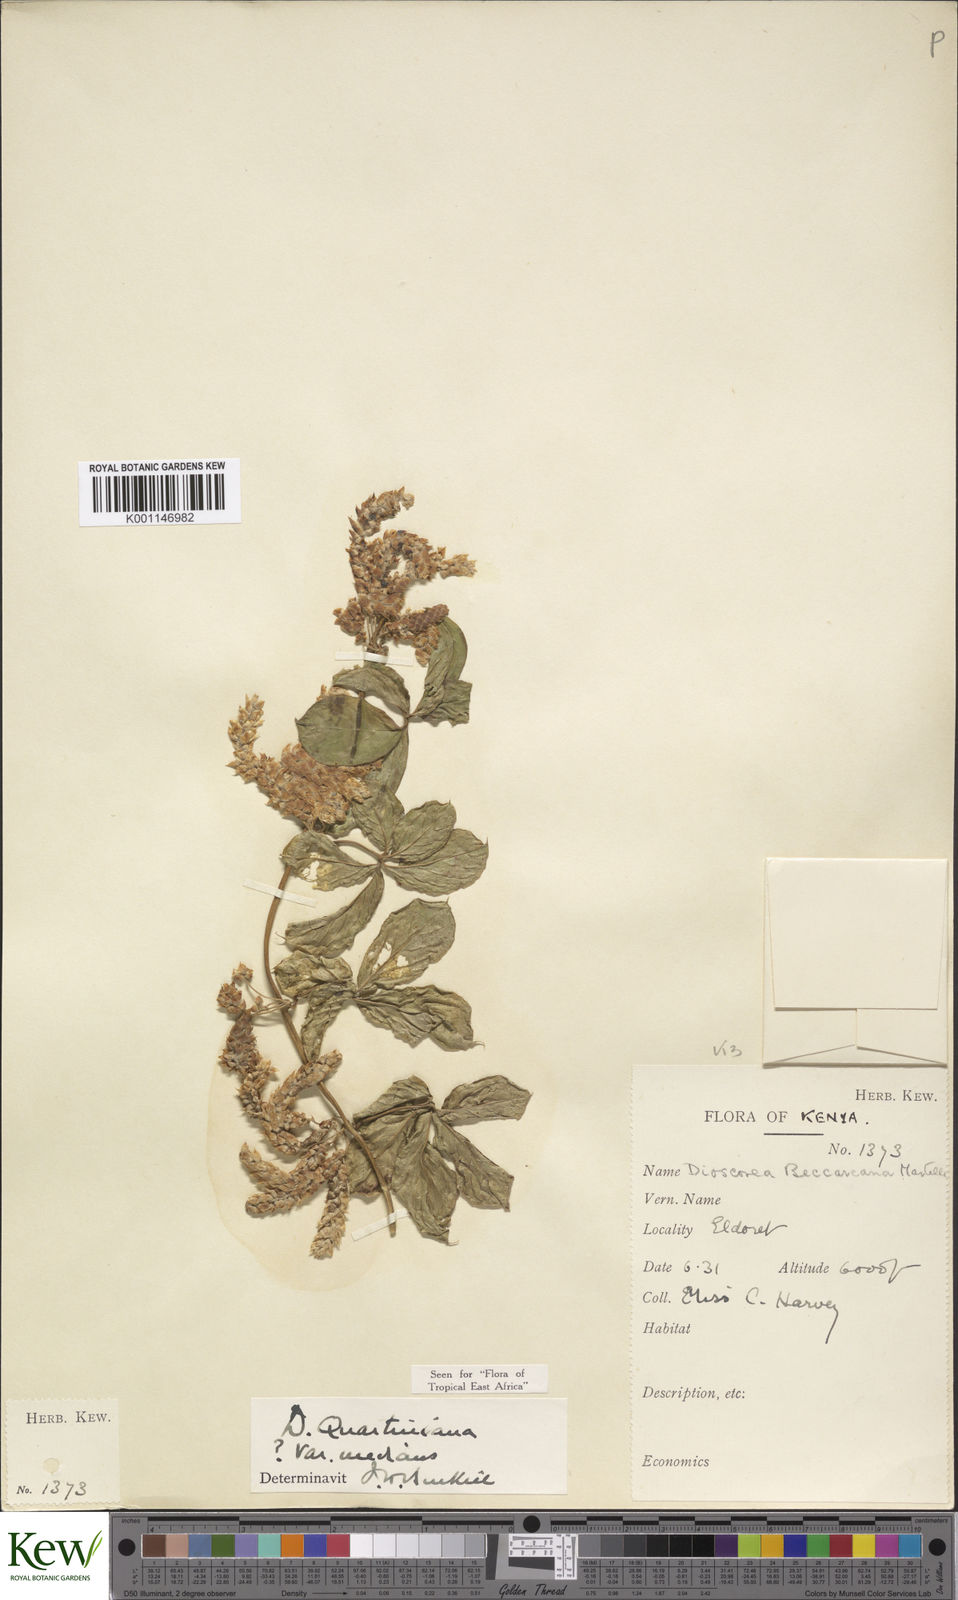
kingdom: Plantae
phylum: Tracheophyta
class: Liliopsida
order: Dioscoreales
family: Dioscoreaceae
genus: Dioscorea
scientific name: Dioscorea quartiniana
